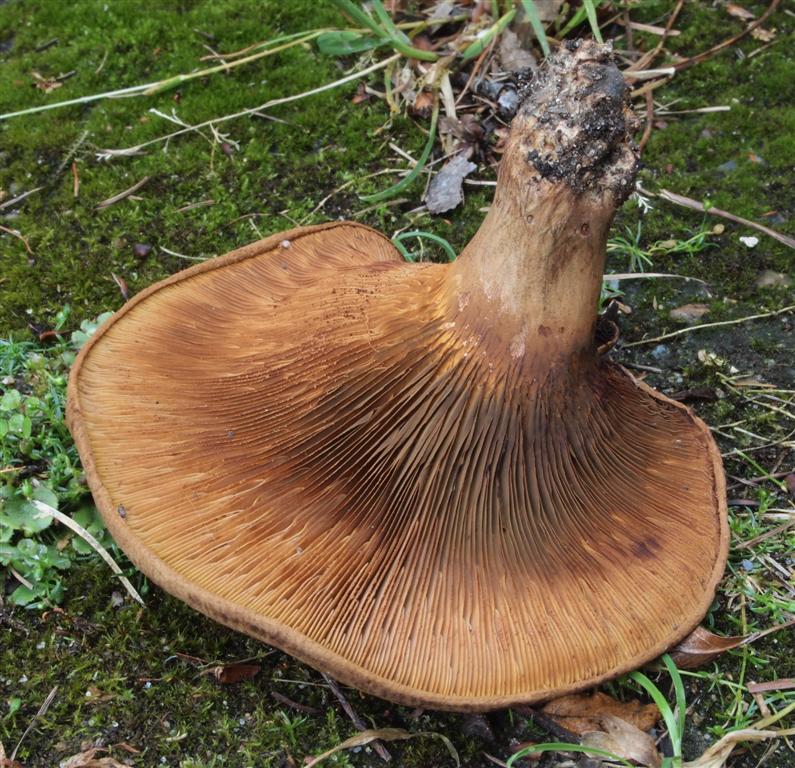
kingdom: Fungi
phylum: Basidiomycota
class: Agaricomycetes
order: Boletales
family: Paxillaceae
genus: Paxillus
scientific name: Paxillus obscurisporus
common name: mahognisporet netbladhat
